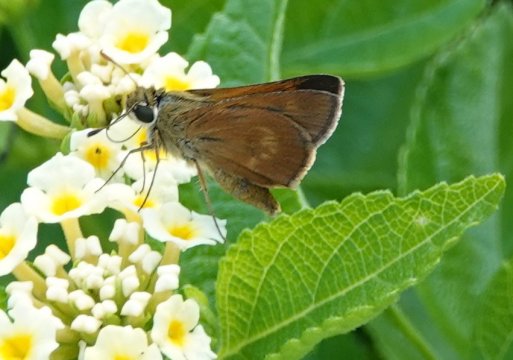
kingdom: Animalia
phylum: Arthropoda
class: Insecta
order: Lepidoptera
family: Hesperiidae
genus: Wallengrenia
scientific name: Wallengrenia otho
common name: Southern Broken-Dash
